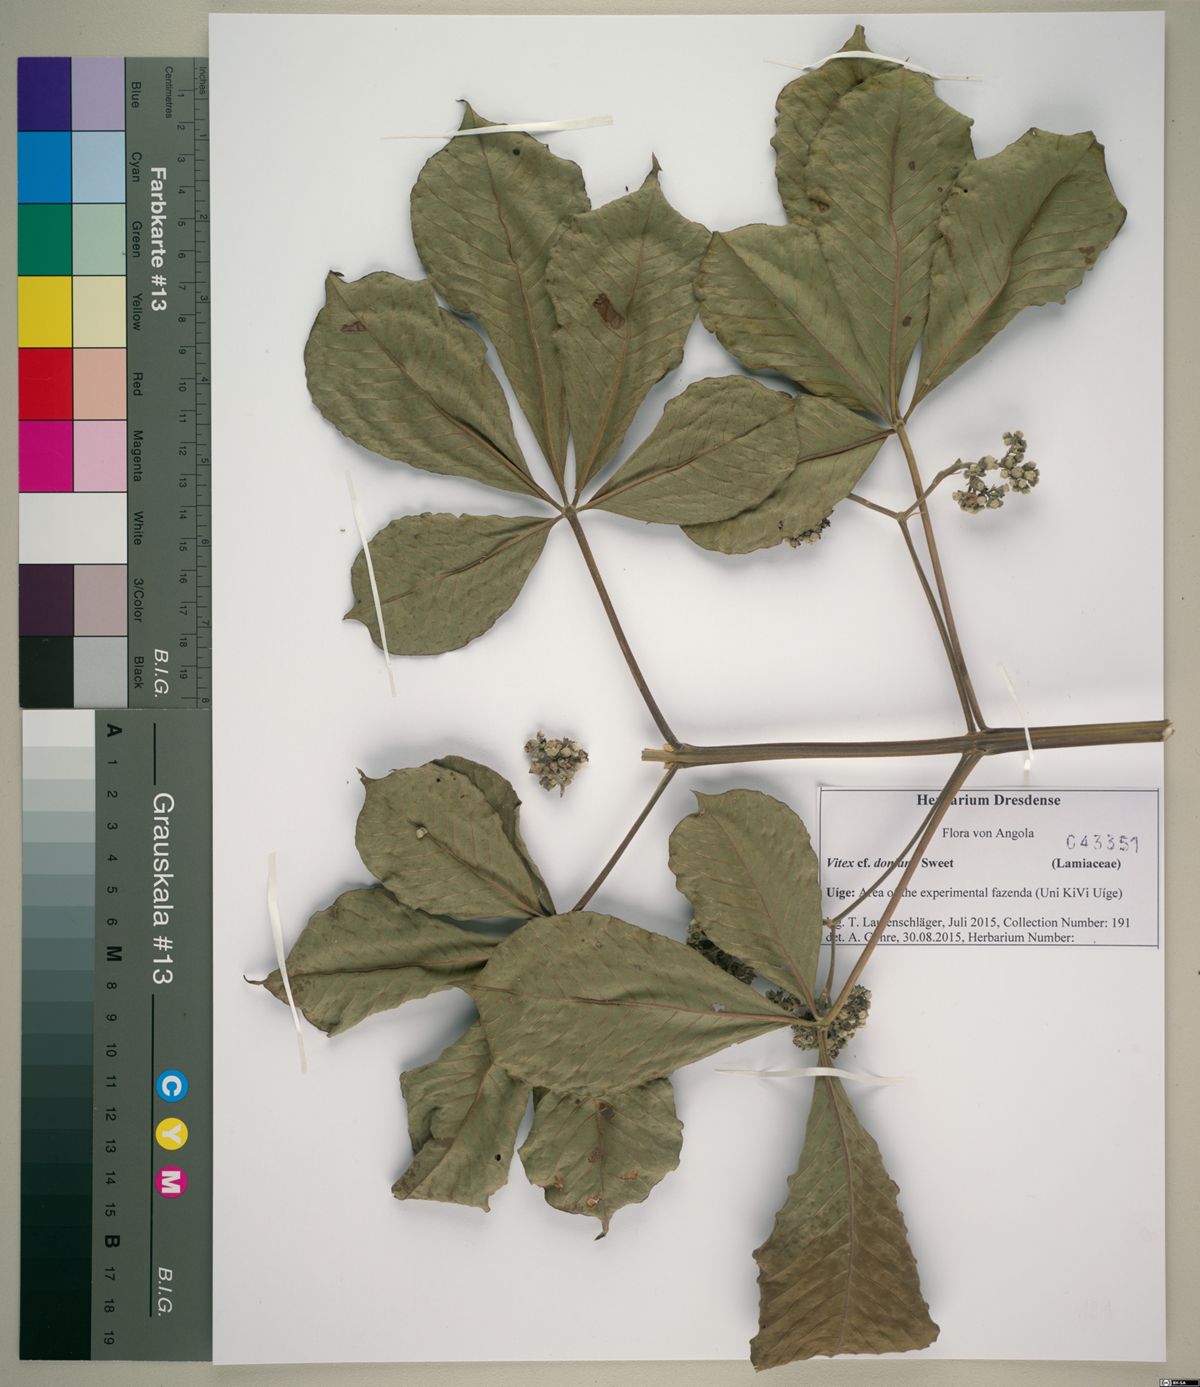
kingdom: Plantae
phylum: Tracheophyta
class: Magnoliopsida
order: Lamiales
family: Lamiaceae
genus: Vitex
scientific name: Vitex doniana
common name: Black plum
